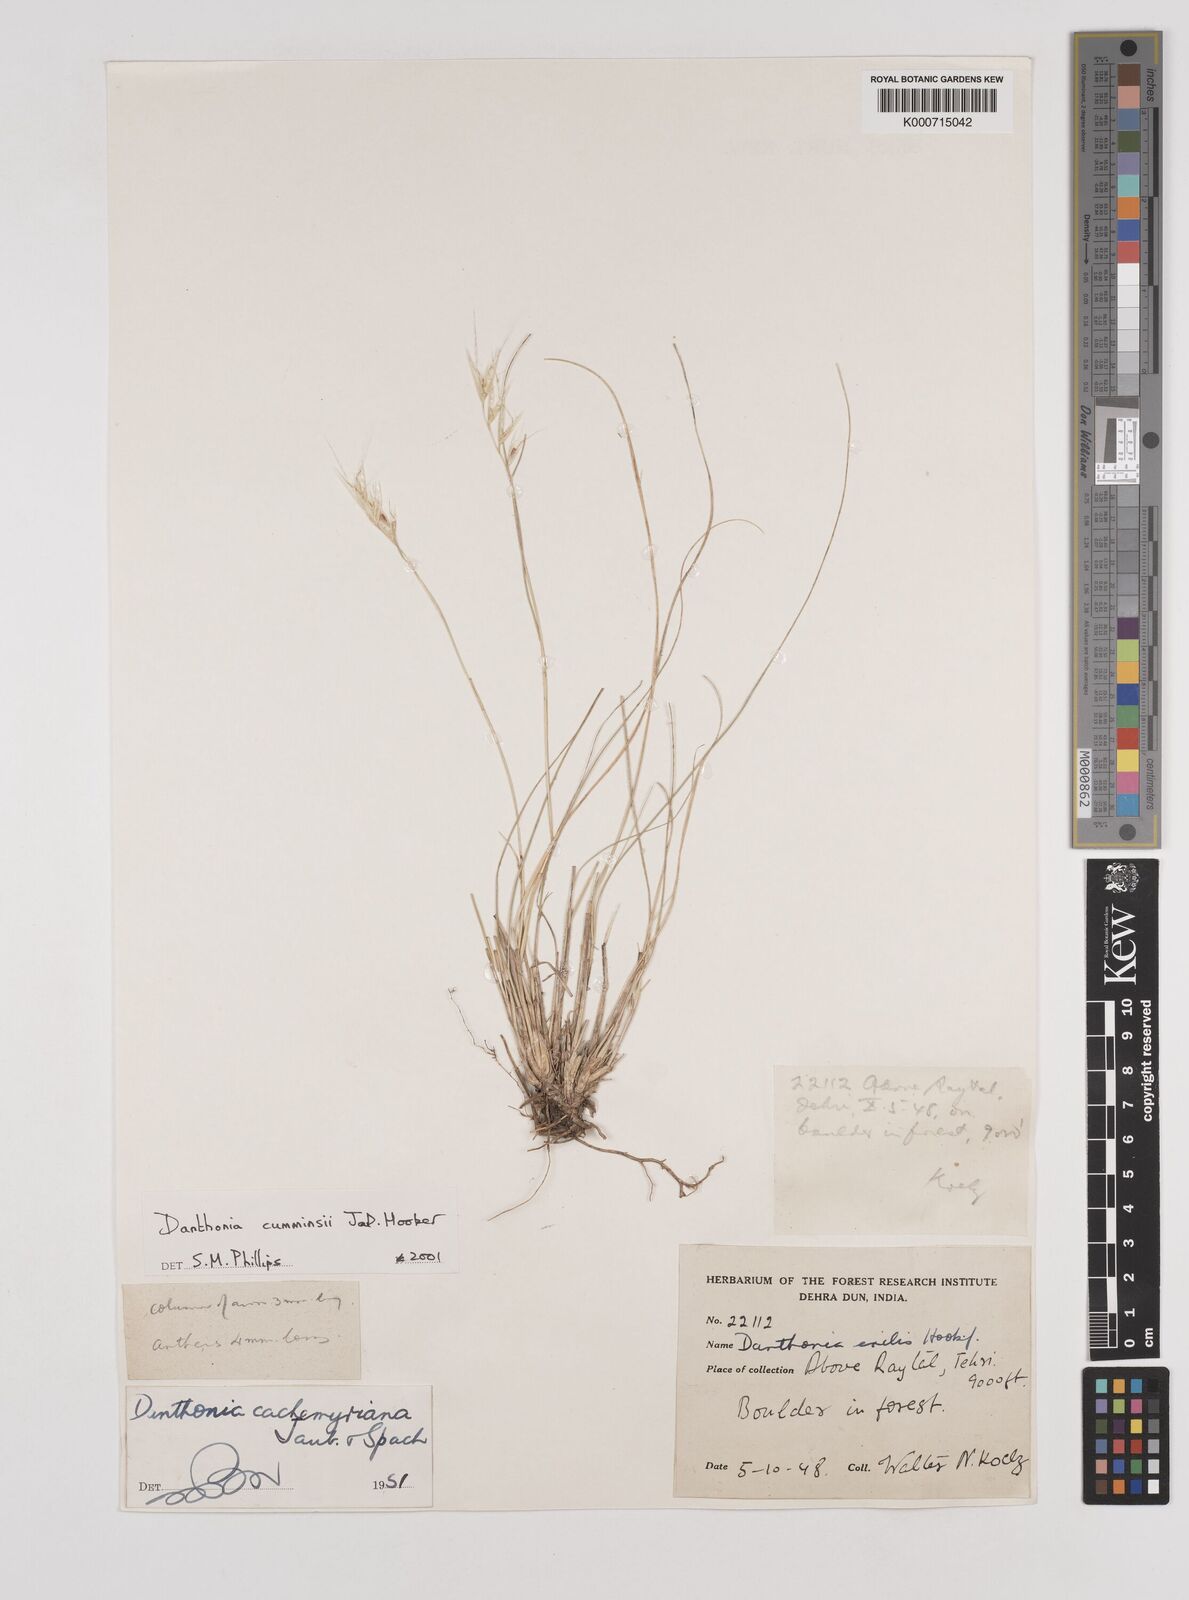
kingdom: Plantae
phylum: Tracheophyta
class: Liliopsida
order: Poales
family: Poaceae
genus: Rytidosperma
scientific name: Rytidosperma
